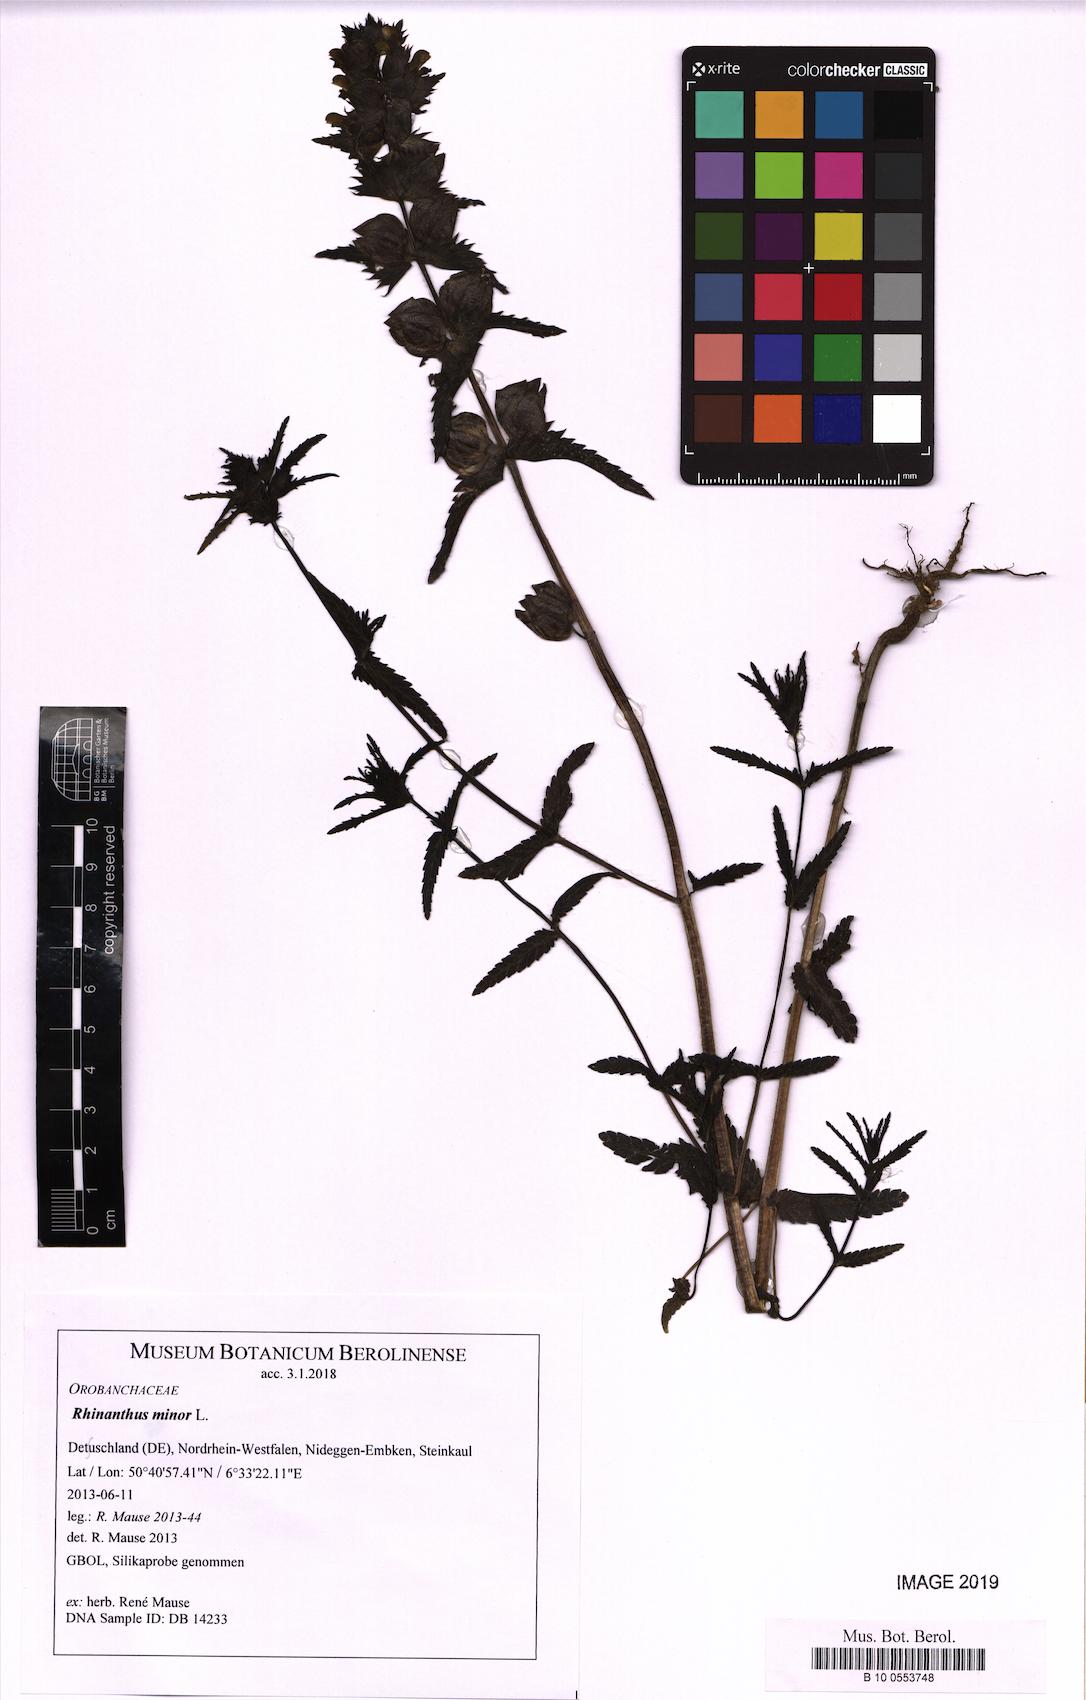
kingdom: Plantae
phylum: Tracheophyta
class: Magnoliopsida
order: Lamiales
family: Orobanchaceae
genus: Rhinanthus
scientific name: Rhinanthus minor
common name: Yellow-rattle
